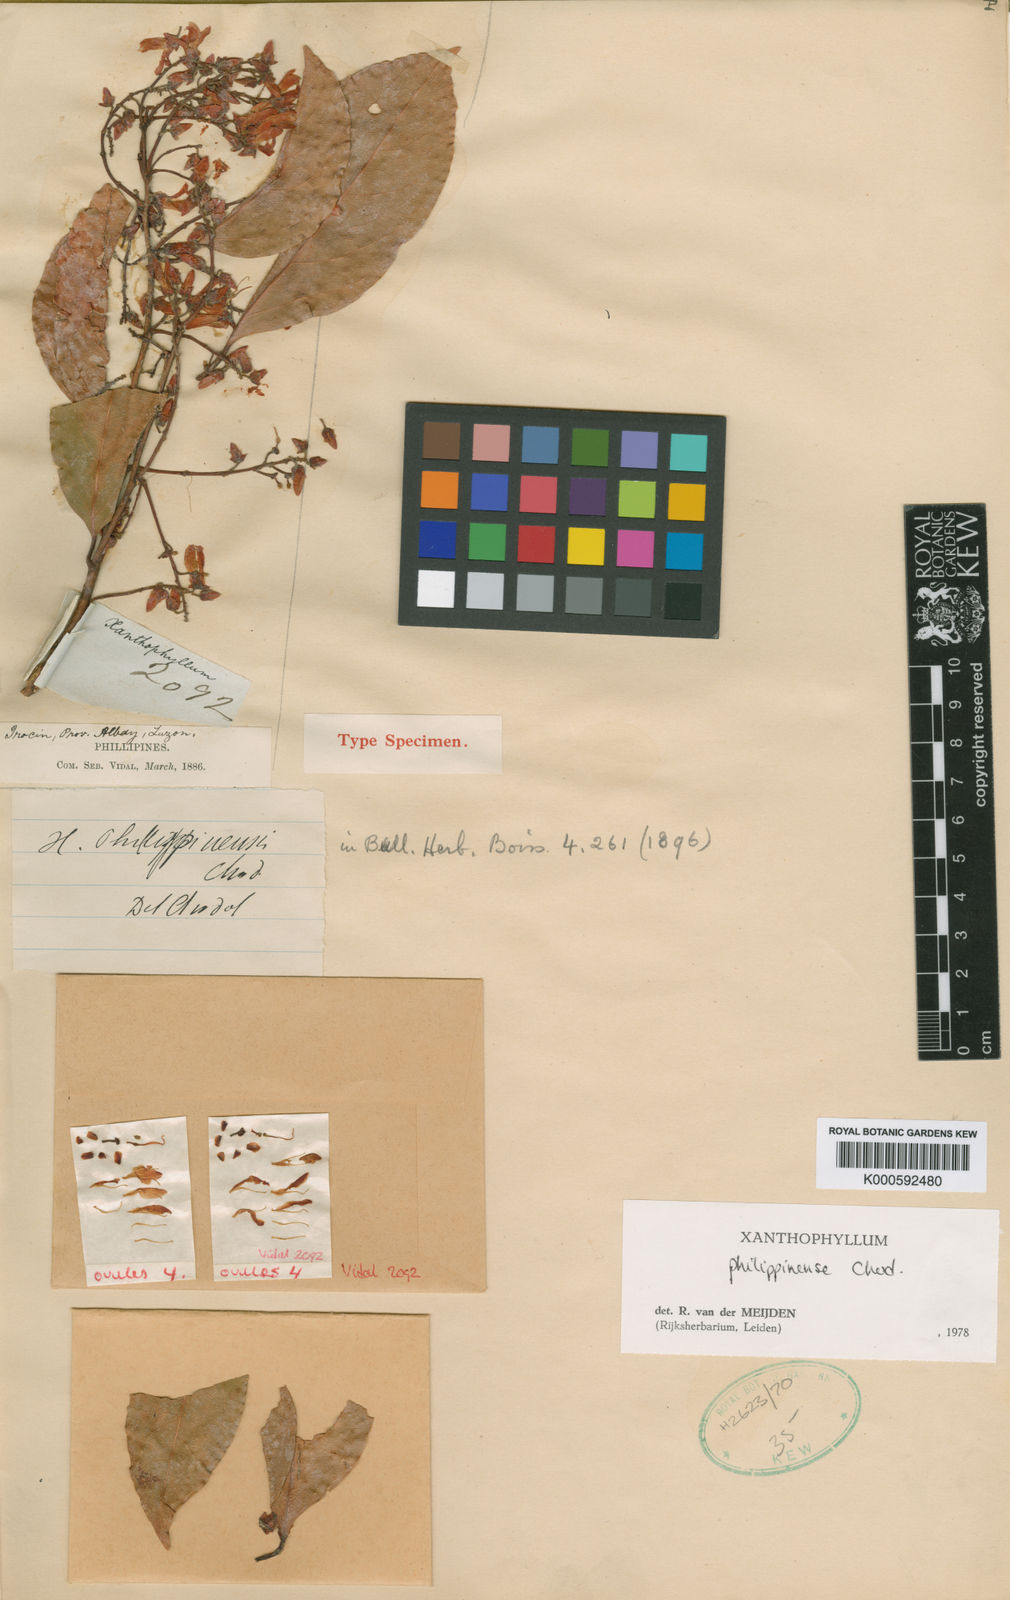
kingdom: Plantae
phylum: Tracheophyta
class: Magnoliopsida
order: Fabales
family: Polygalaceae
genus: Xanthophyllum
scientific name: Xanthophyllum philippinense
